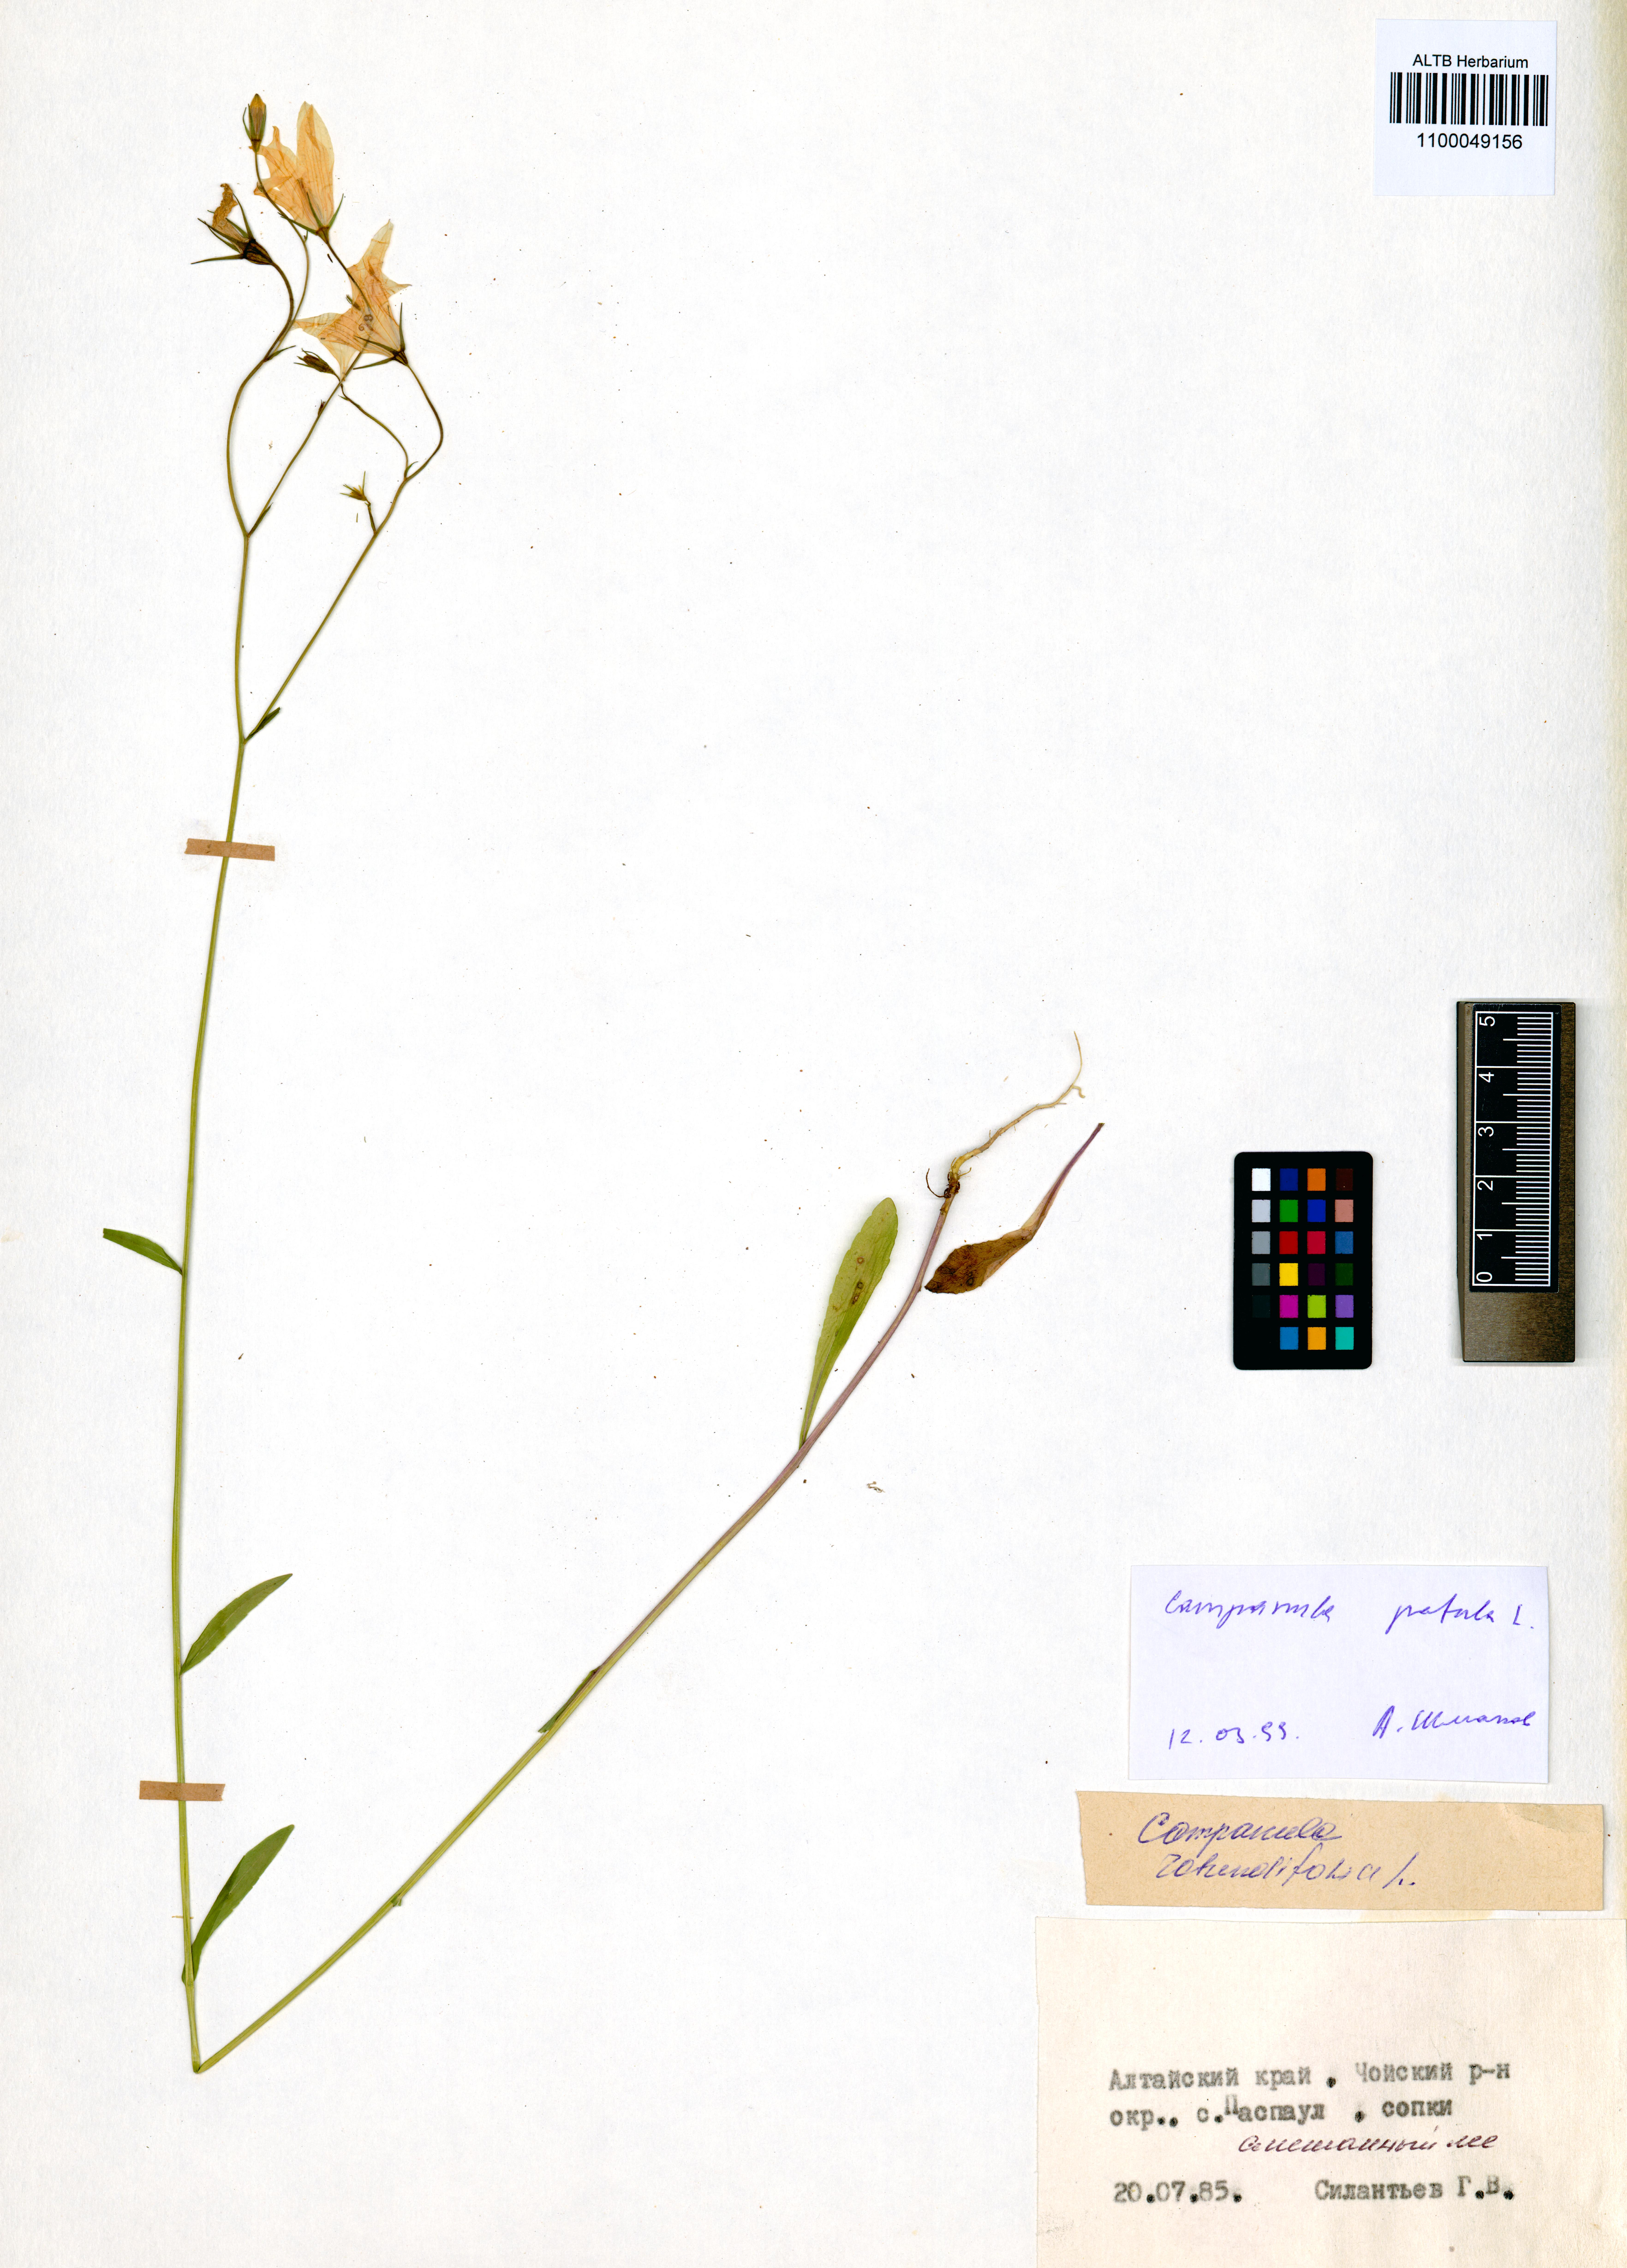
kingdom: Plantae
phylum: Tracheophyta
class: Magnoliopsida
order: Asterales
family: Campanulaceae
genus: Campanula
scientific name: Campanula patula
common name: Spreading bellflower
